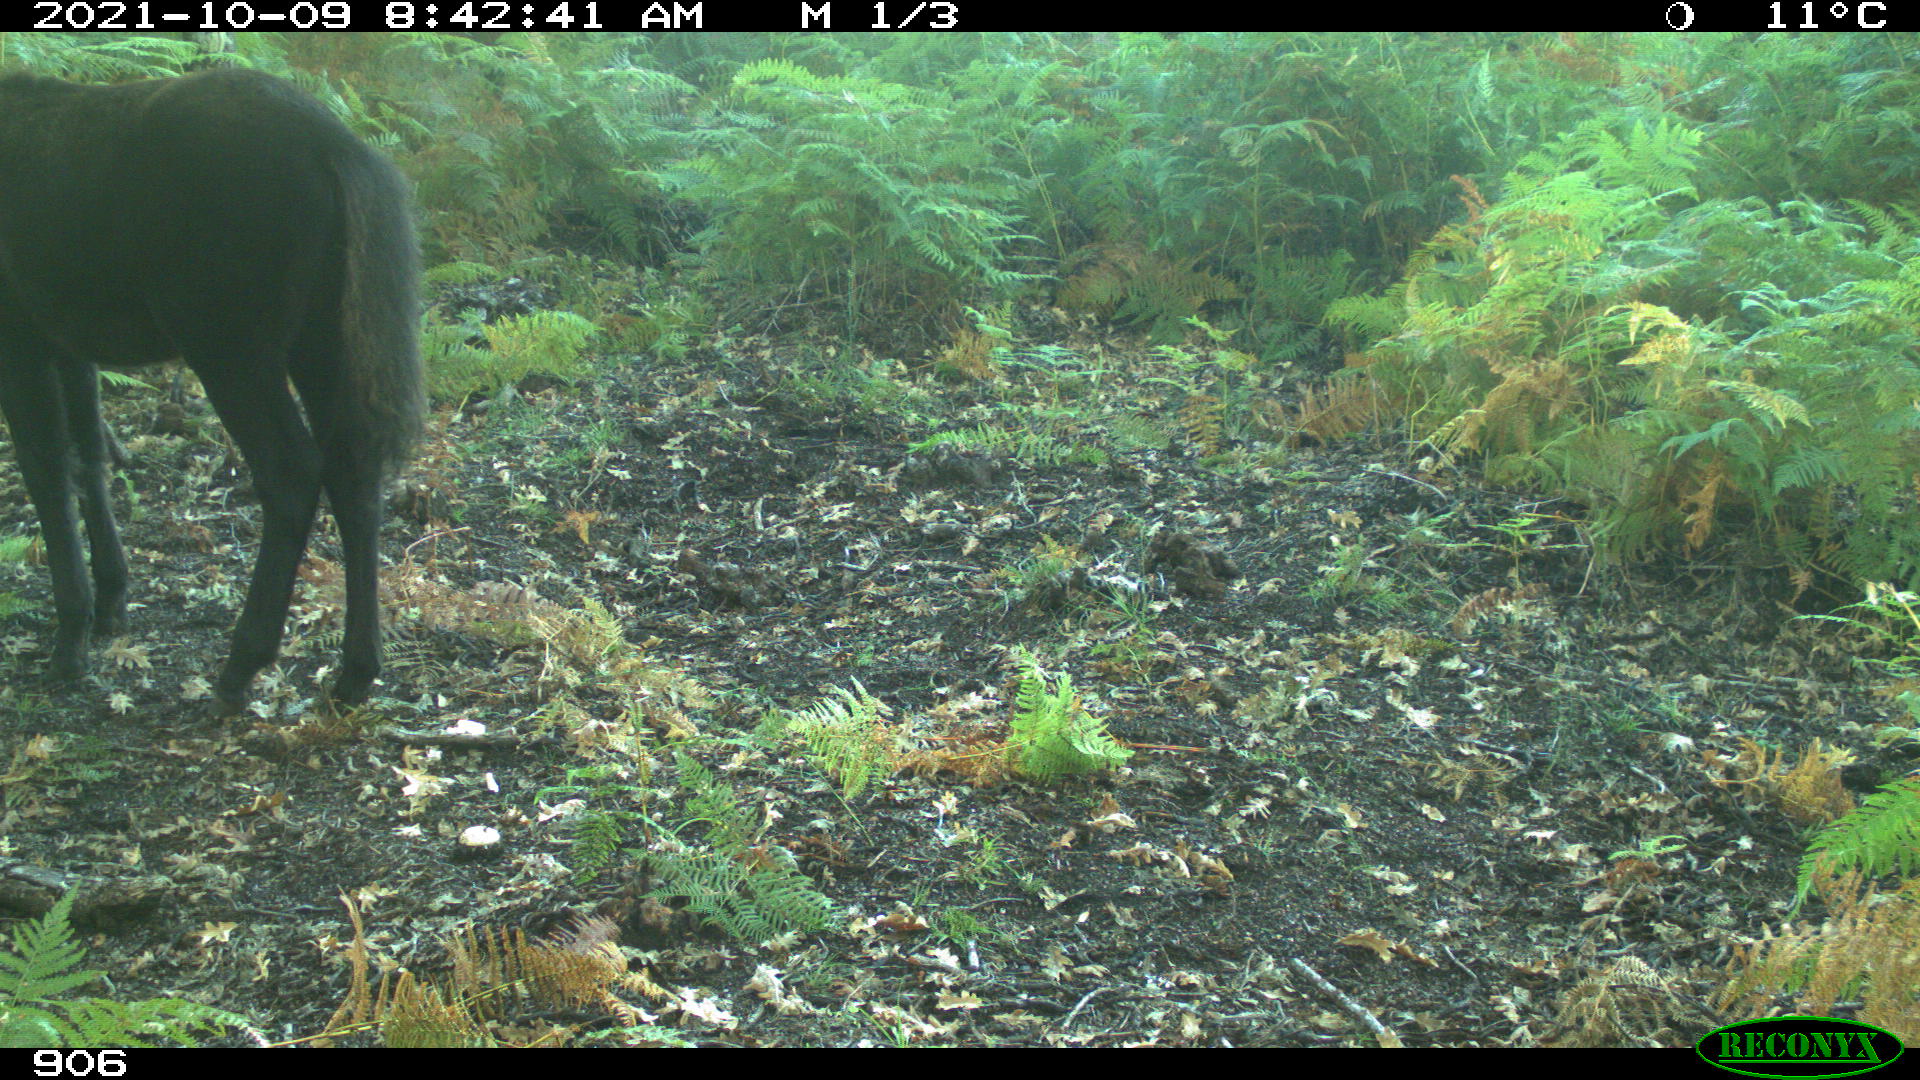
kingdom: Animalia
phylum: Chordata
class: Mammalia
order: Perissodactyla
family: Equidae
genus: Equus
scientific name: Equus caballus
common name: Horse
